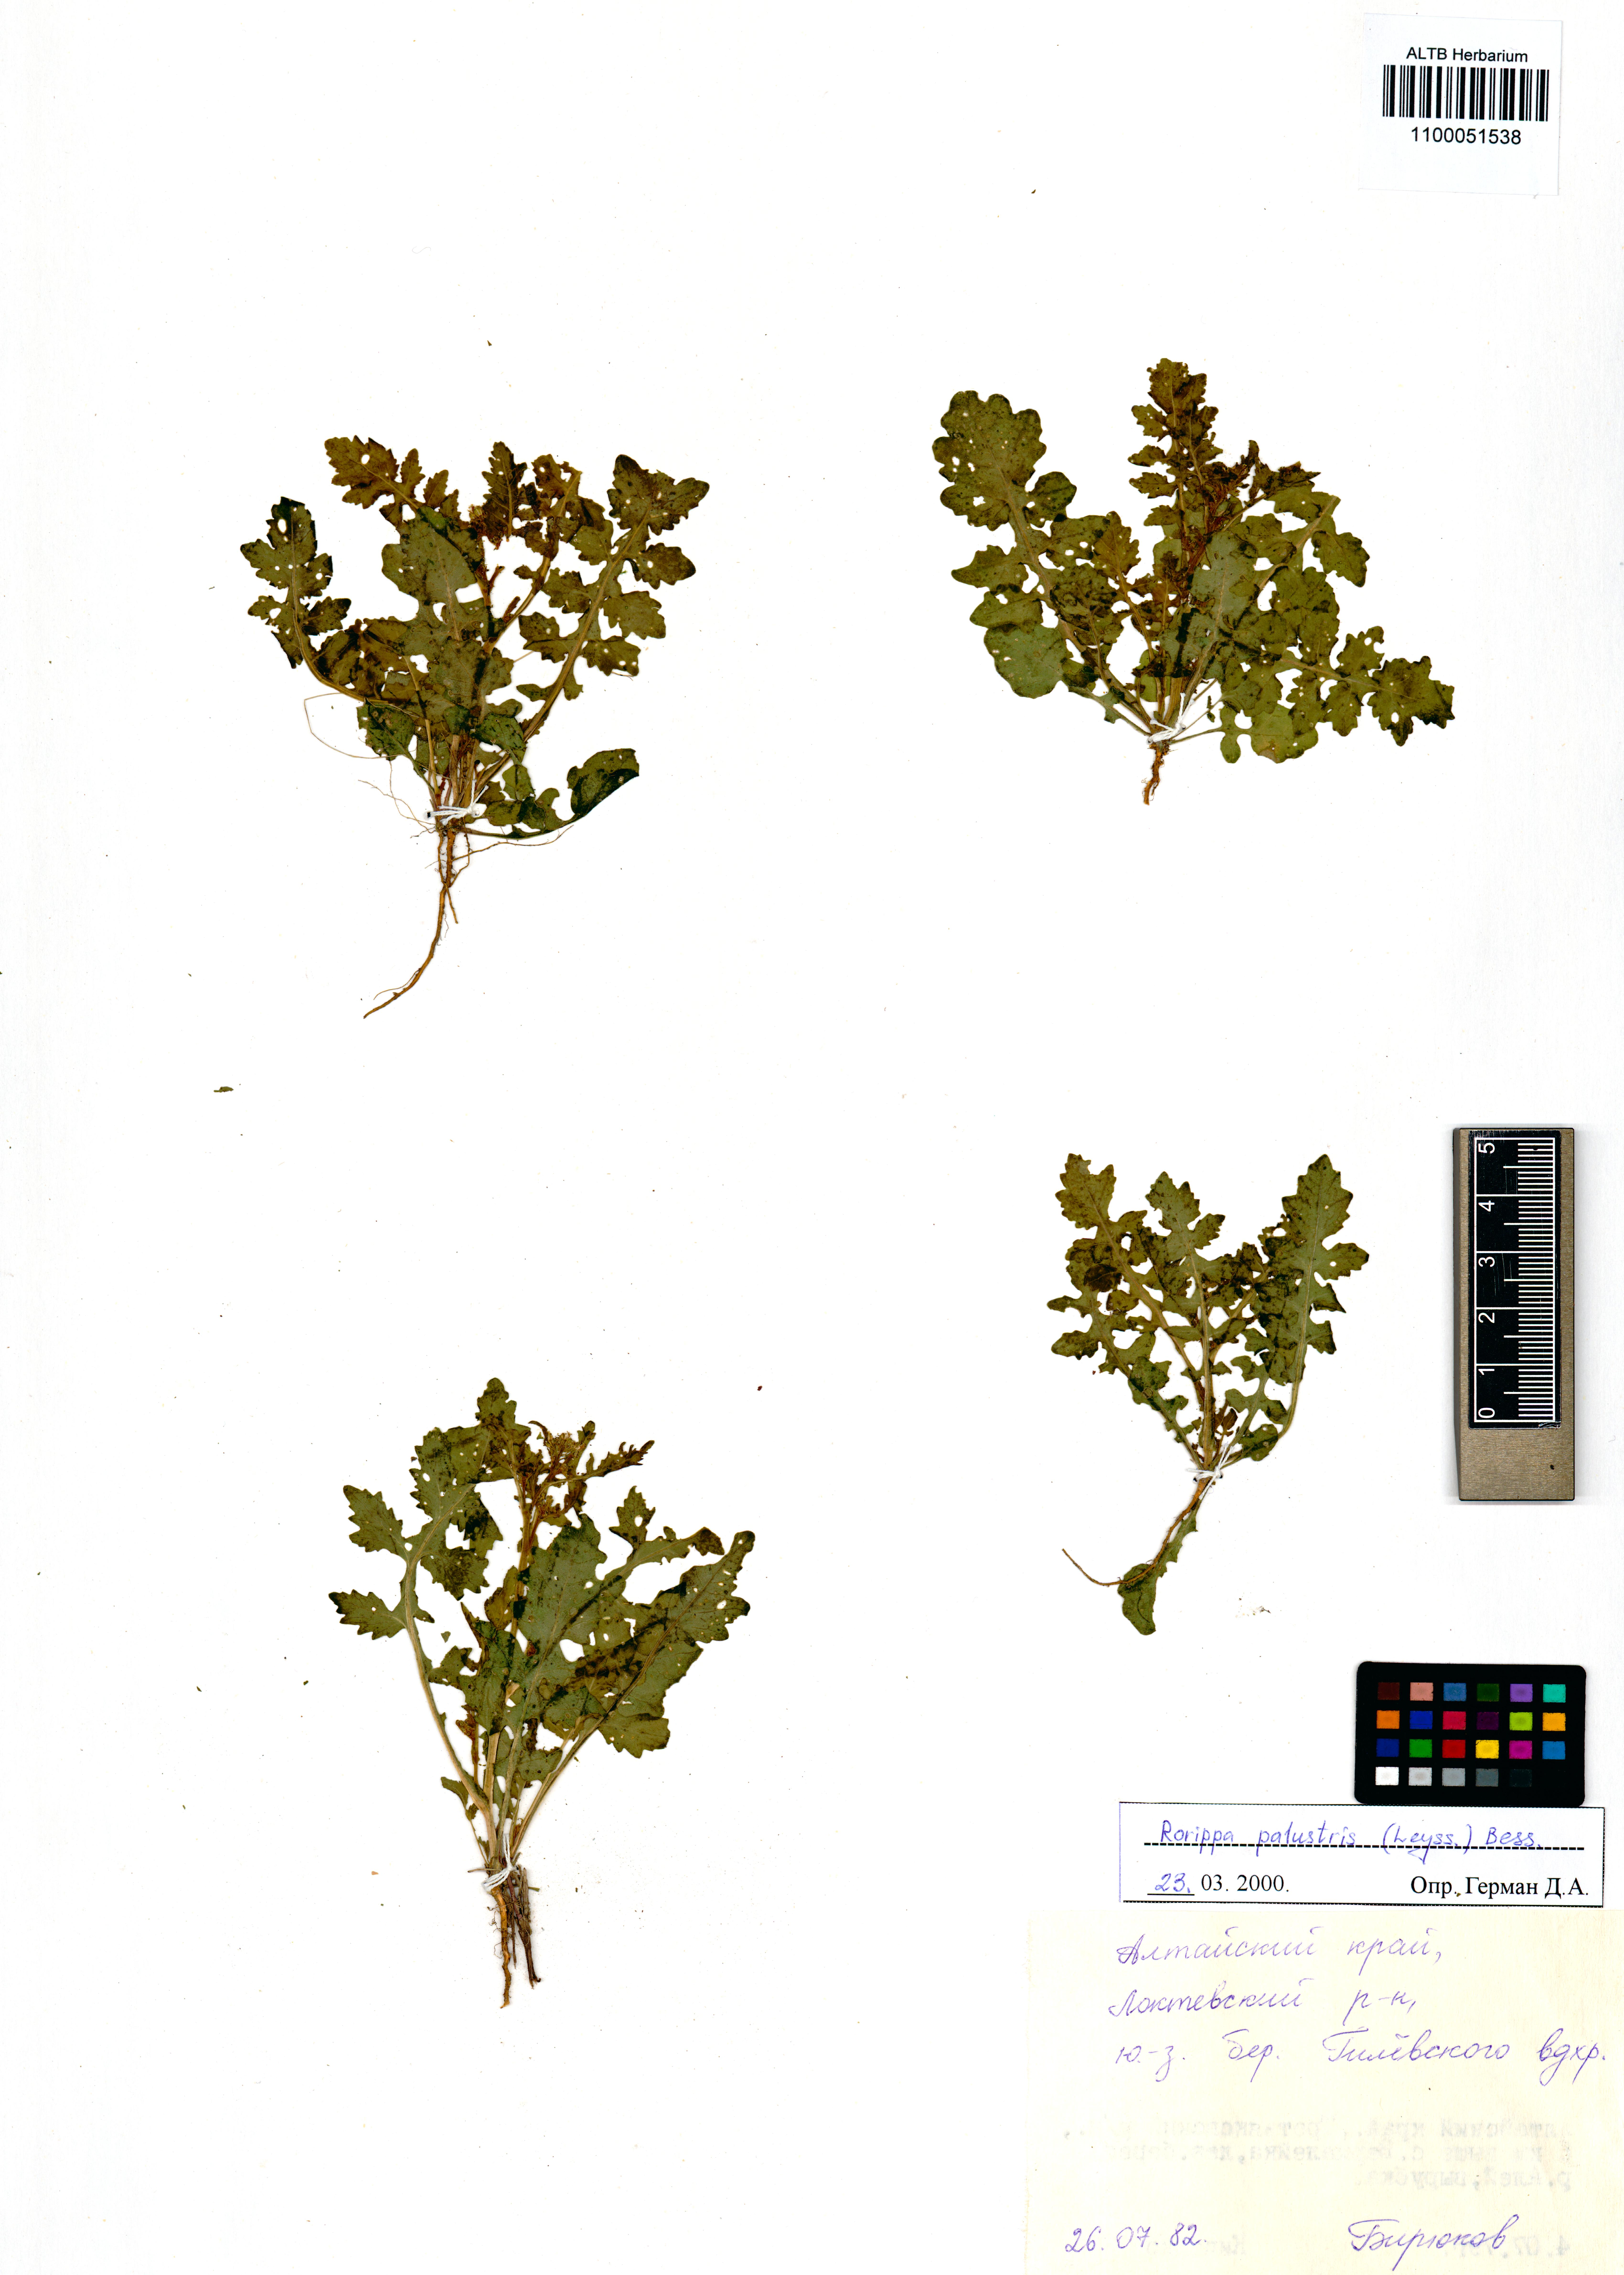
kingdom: Plantae
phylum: Tracheophyta
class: Magnoliopsida
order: Brassicales
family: Brassicaceae
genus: Rorippa
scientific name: Rorippa palustris
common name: Marsh yellow-cress
